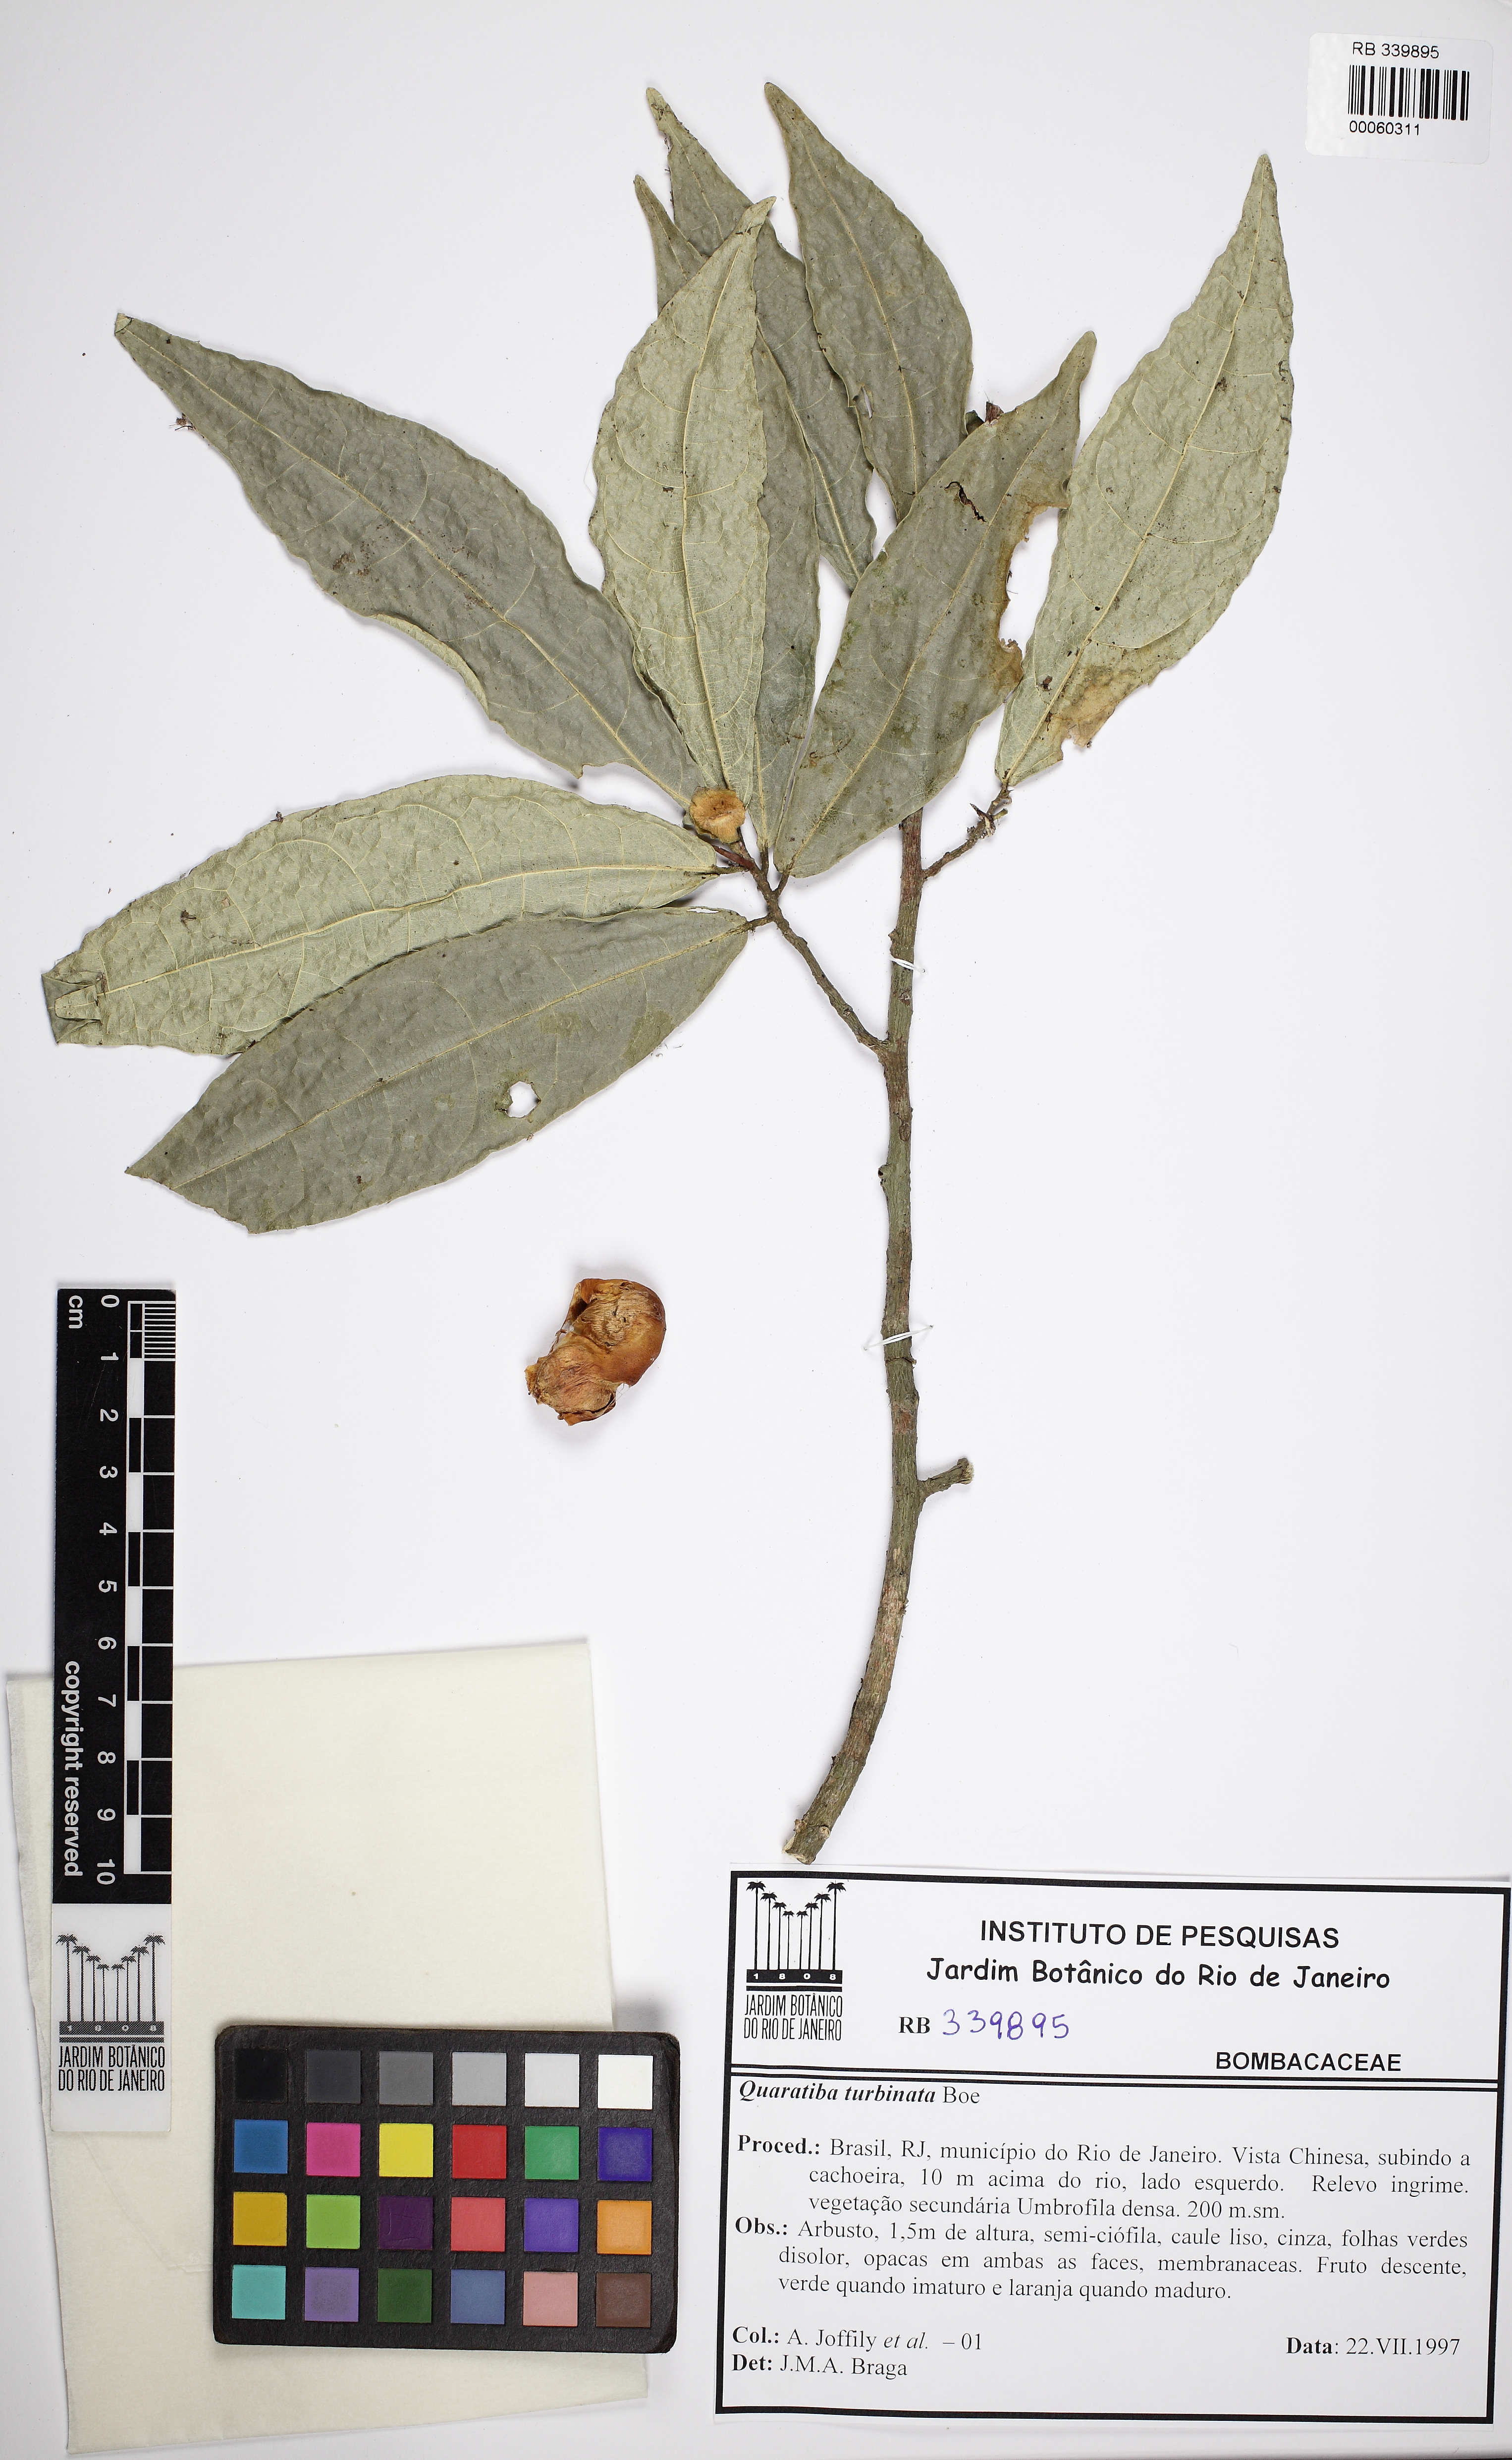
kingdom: Plantae
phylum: Tracheophyta
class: Magnoliopsida
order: Malvales
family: Malvaceae
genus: Quararibea
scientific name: Quararibea angustifolia
